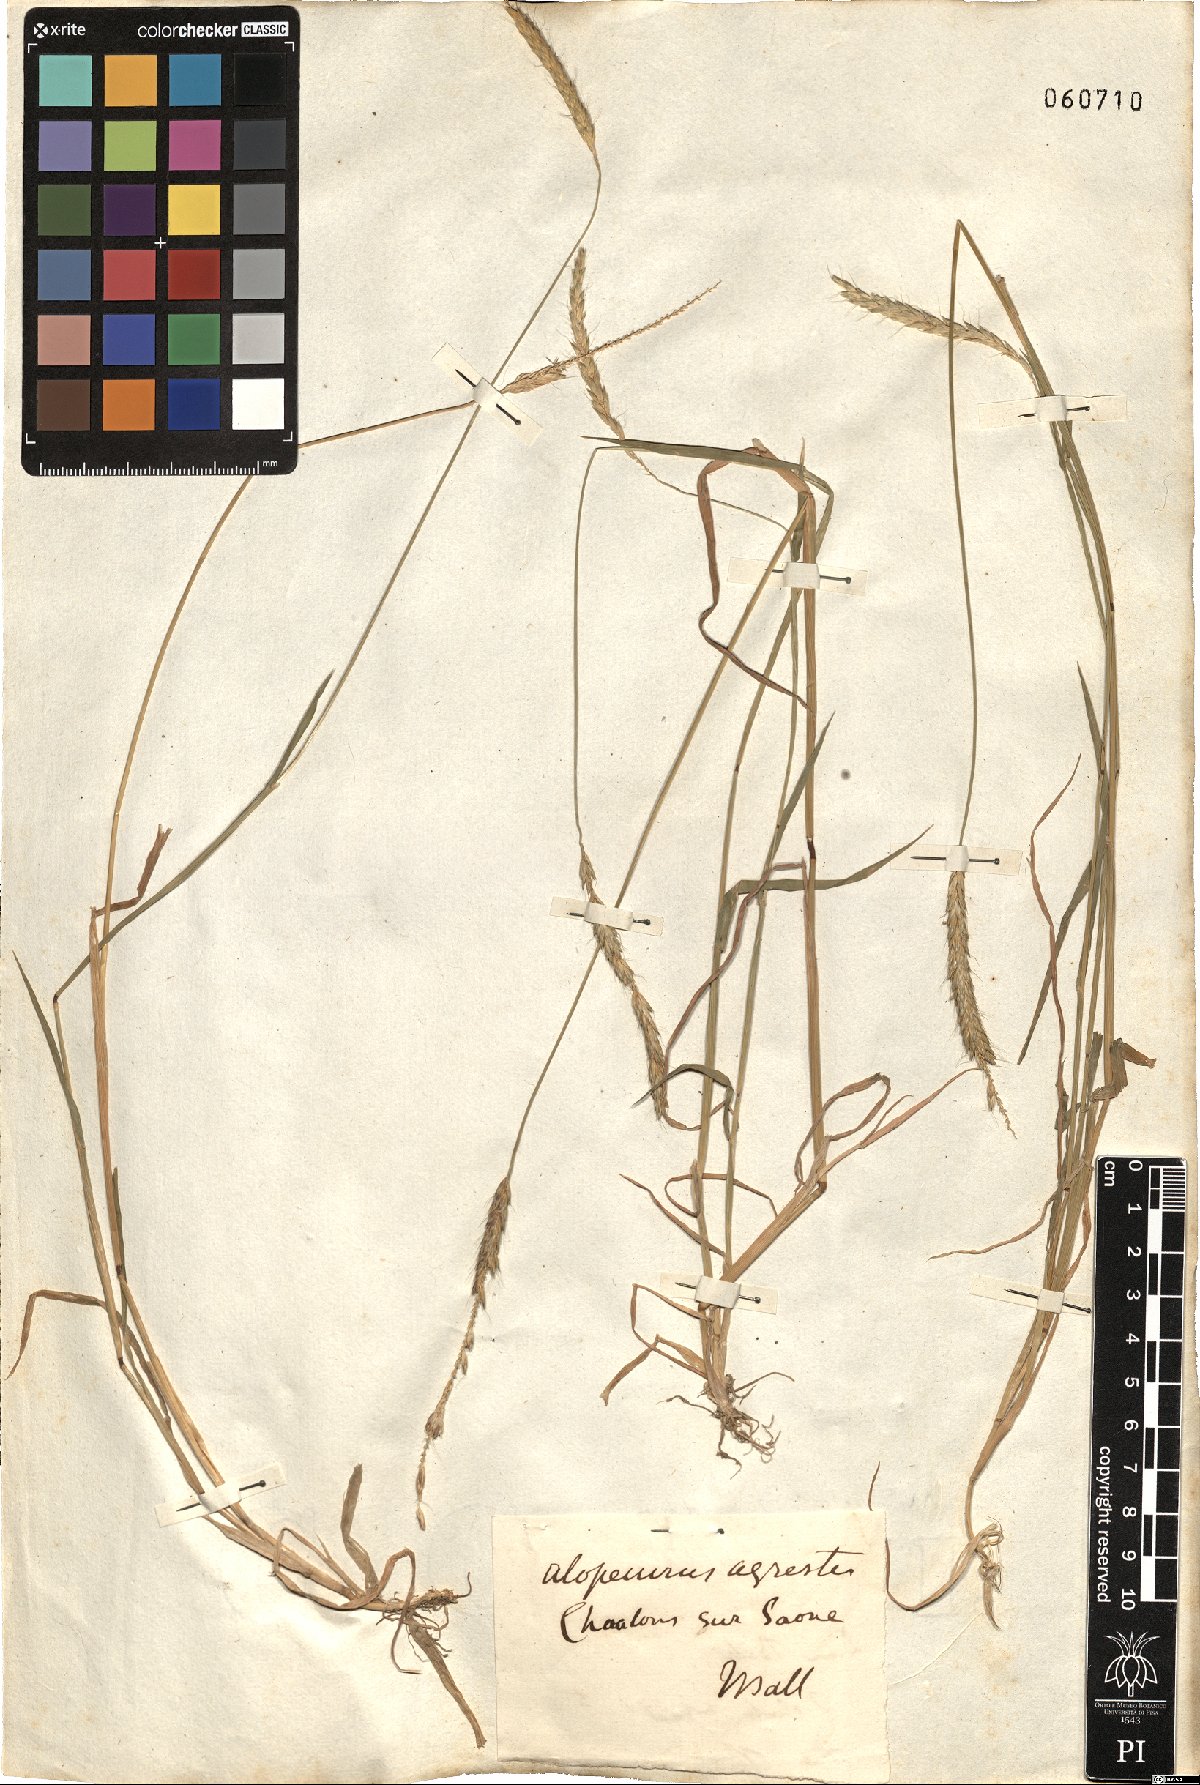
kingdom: Plantae
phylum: Tracheophyta
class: Liliopsida
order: Poales
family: Poaceae
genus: Alopecurus
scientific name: Alopecurus myosuroides
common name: Black-grass
